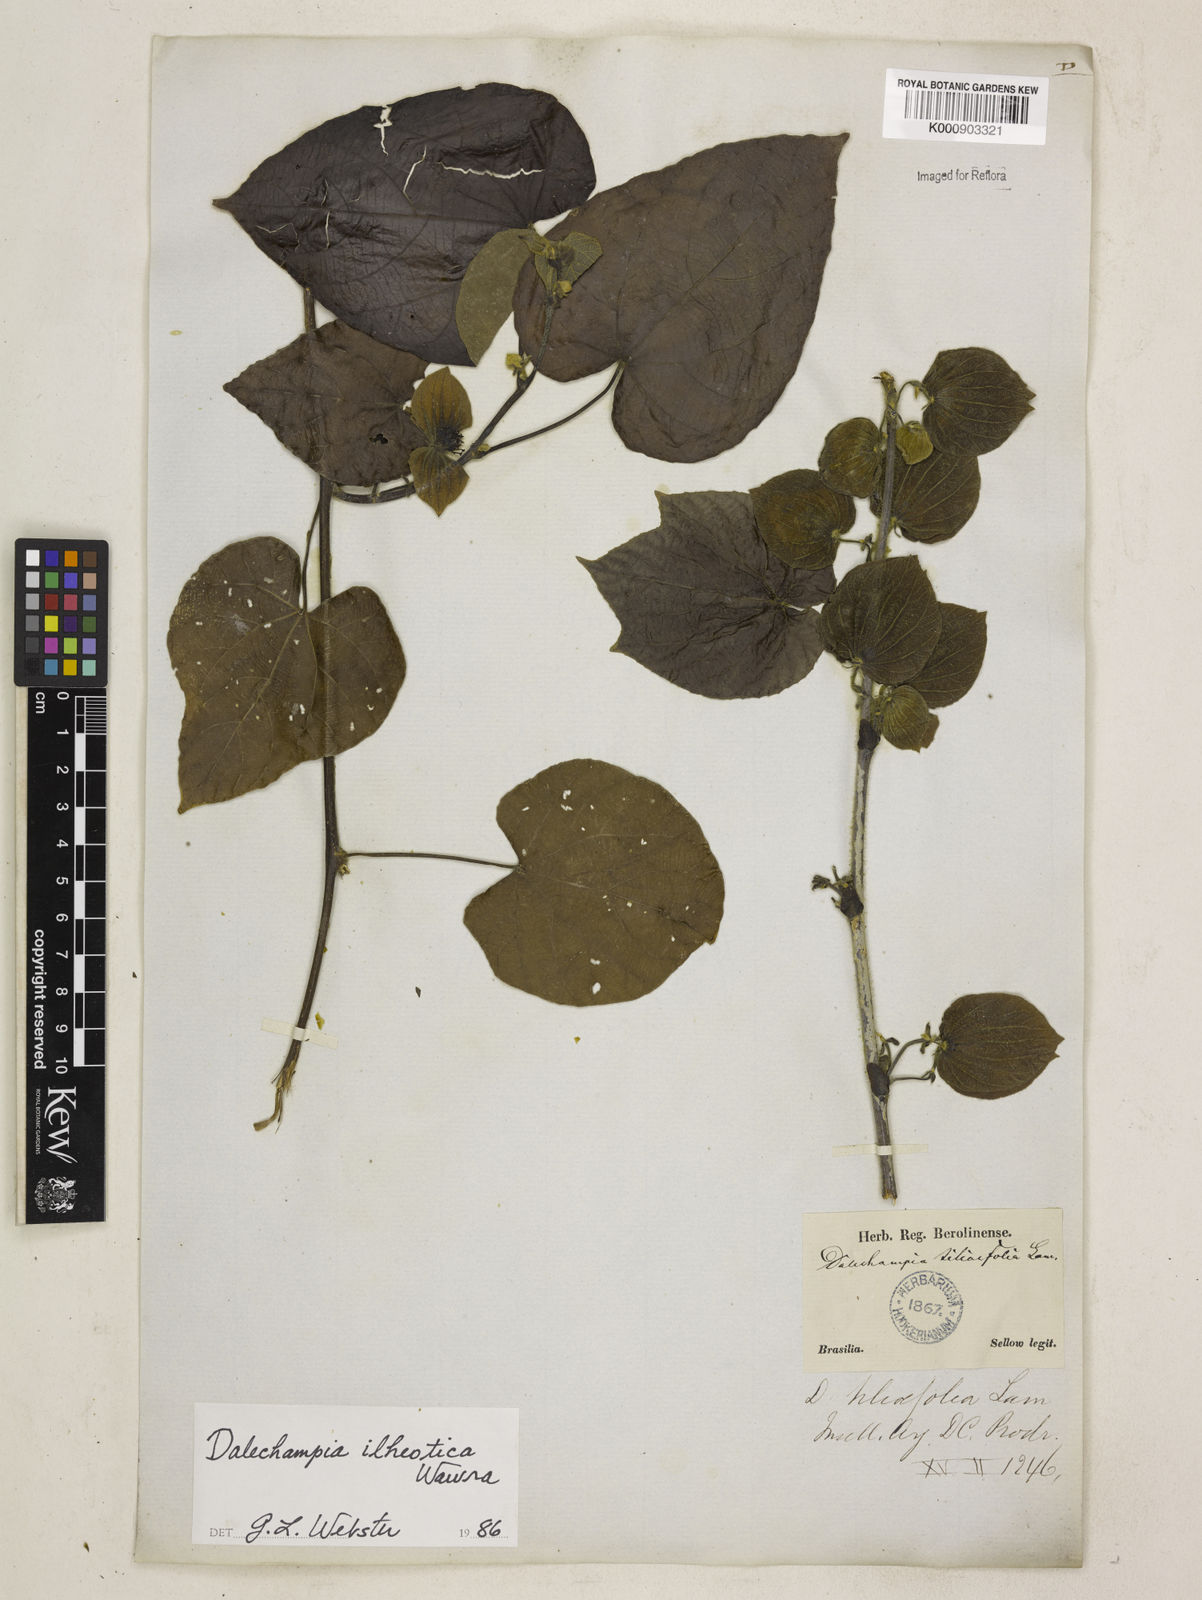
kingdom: Plantae
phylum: Tracheophyta
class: Magnoliopsida
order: Malpighiales
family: Euphorbiaceae
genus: Dalechampia
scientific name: Dalechampia ilheotica
